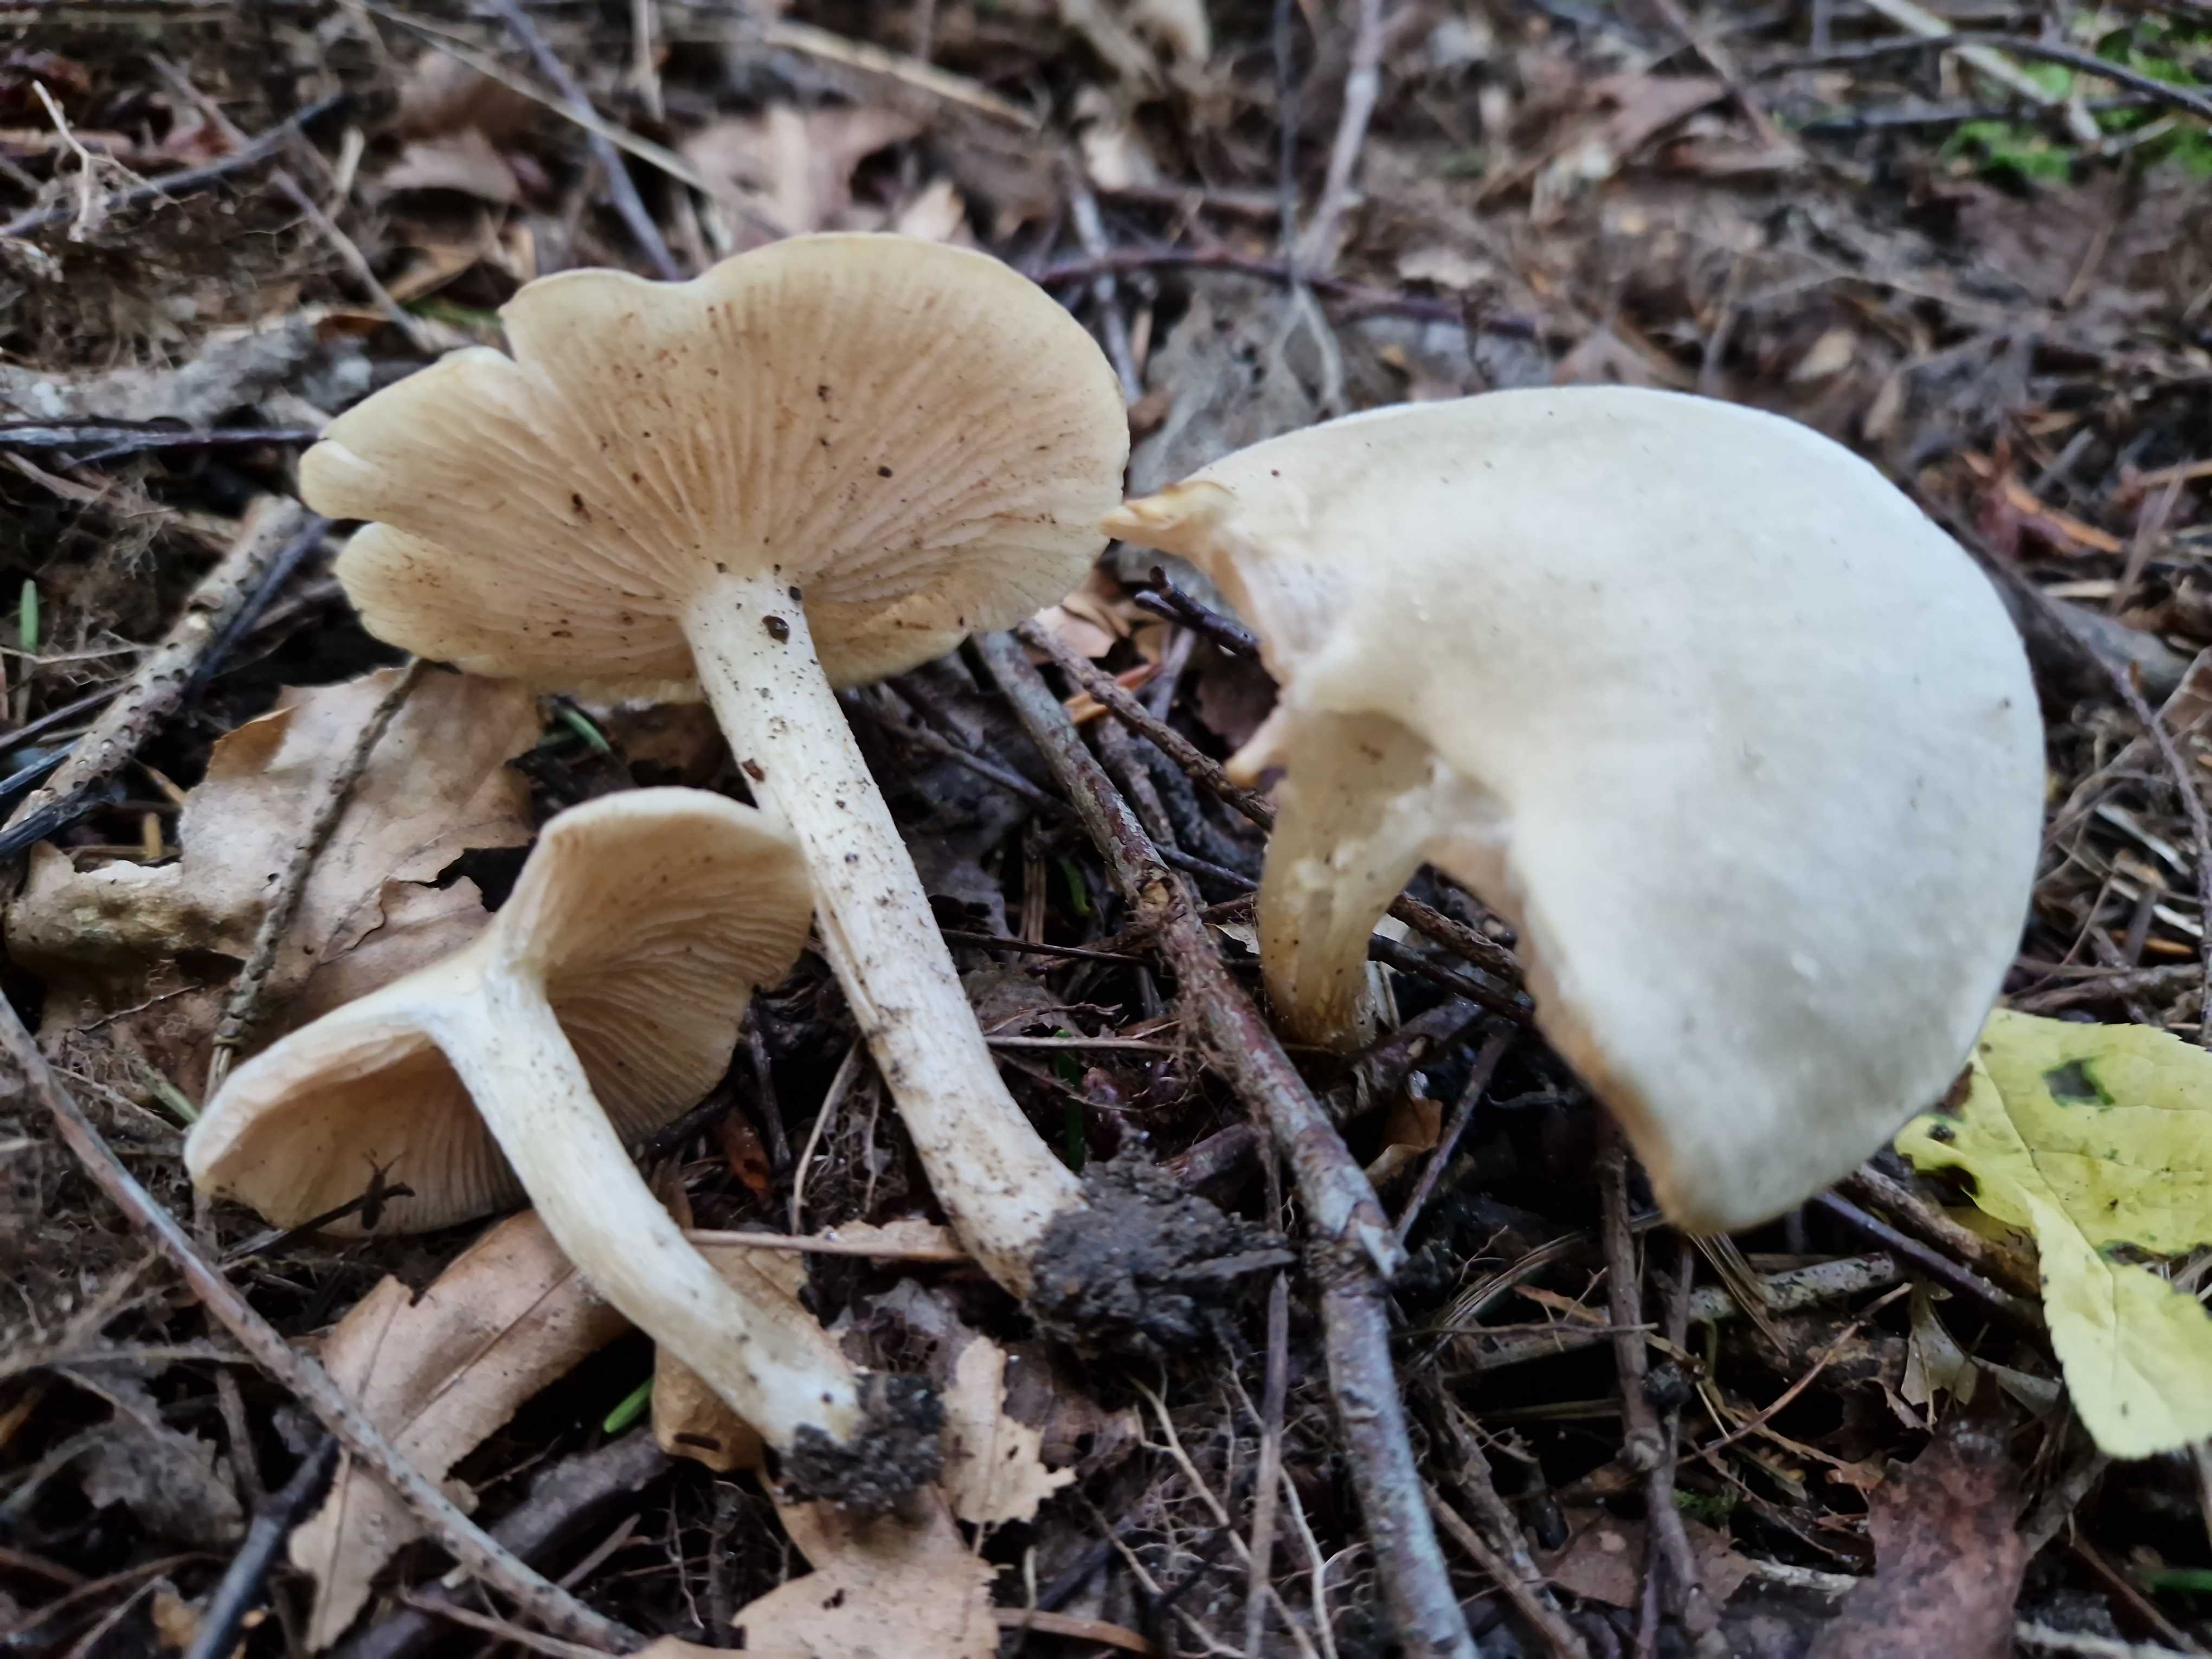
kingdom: Fungi
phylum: Basidiomycota
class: Agaricomycetes
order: Agaricales
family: Entolomataceae
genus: Entoloma
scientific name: Entoloma
